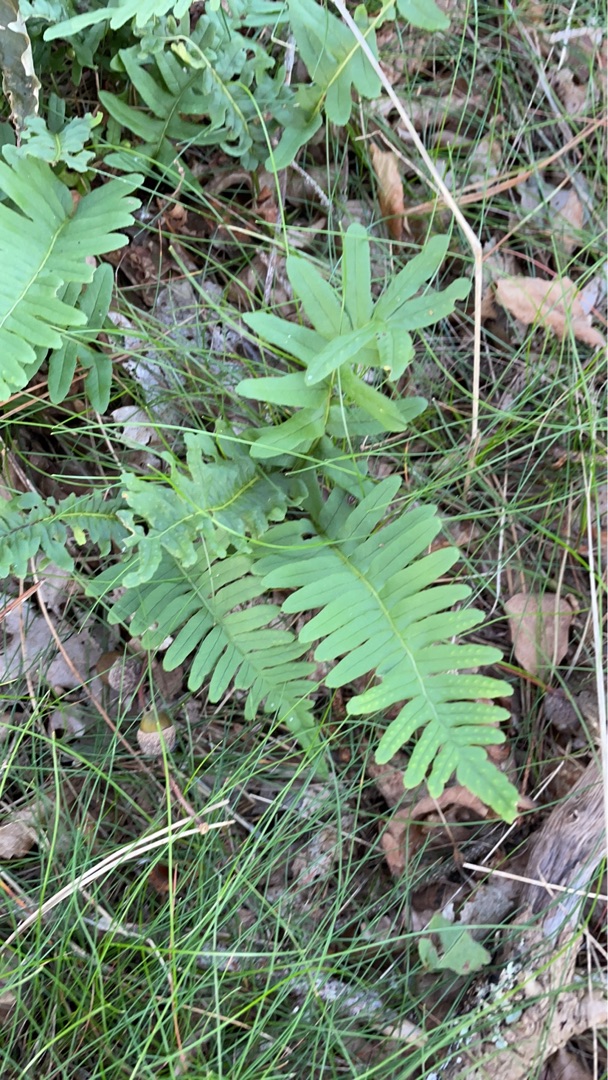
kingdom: Plantae
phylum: Tracheophyta
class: Polypodiopsida
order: Polypodiales
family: Polypodiaceae
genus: Polypodium
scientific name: Polypodium vulgare
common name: Almindelig engelsød
